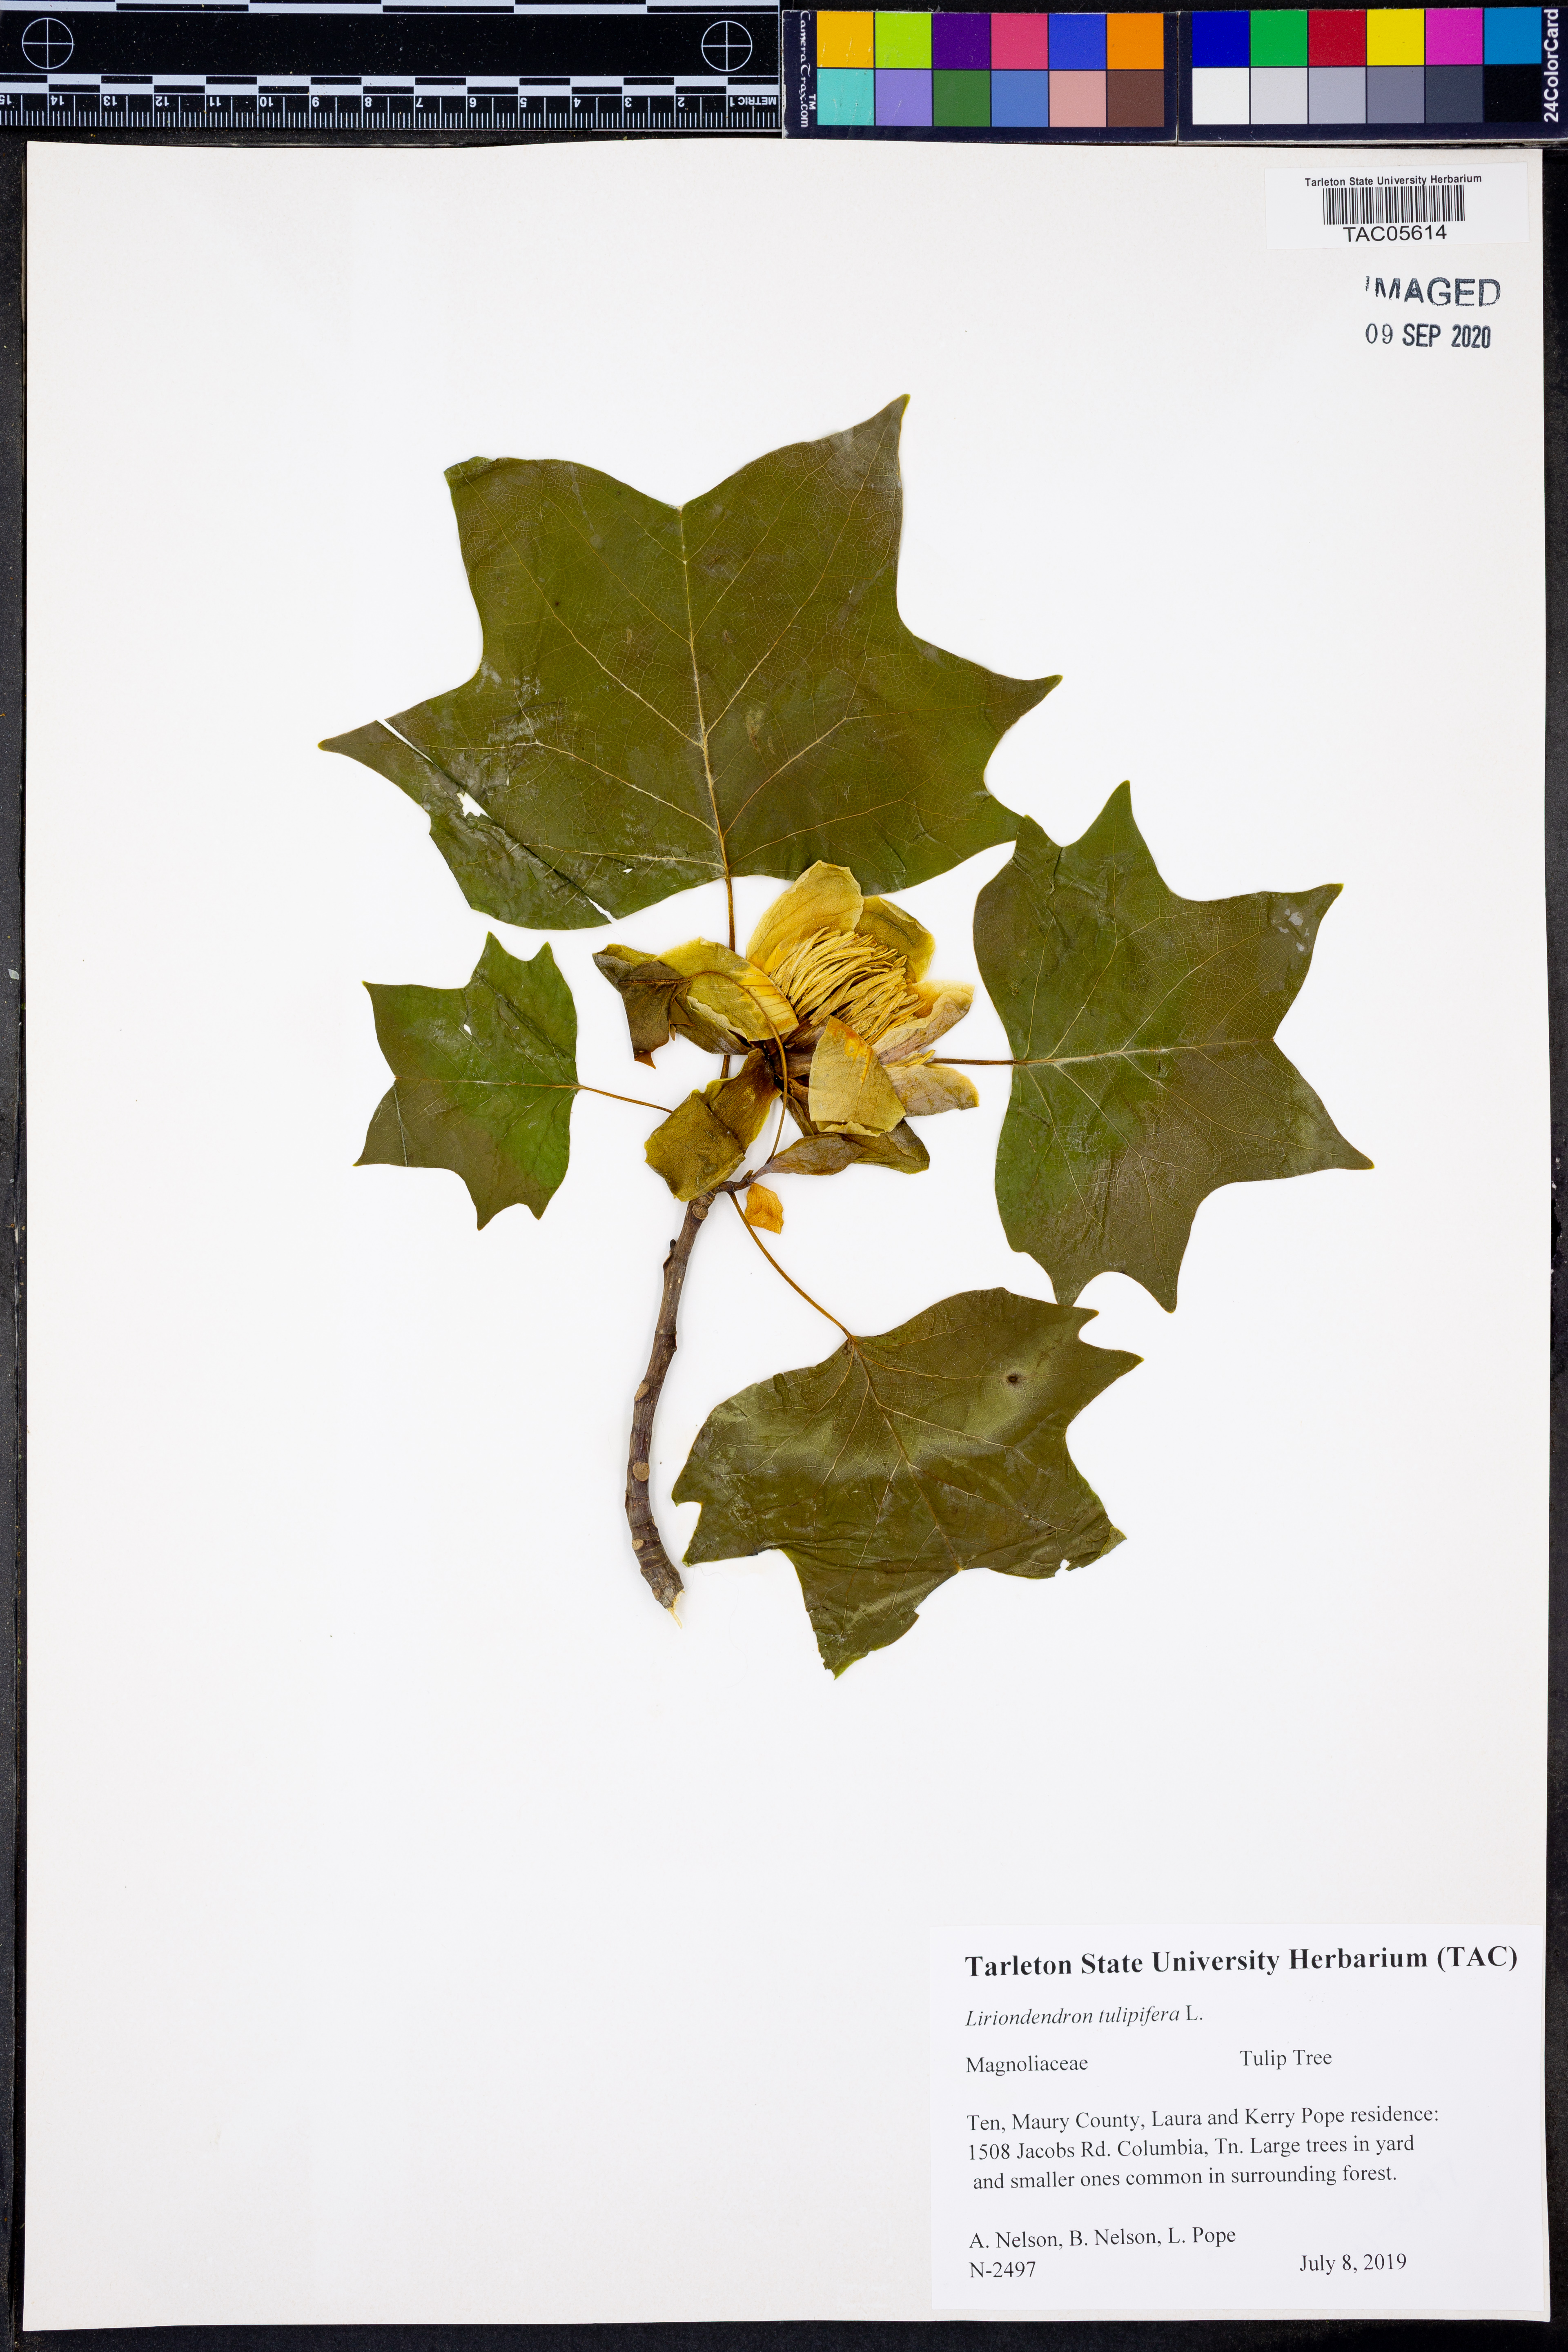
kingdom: Plantae
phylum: Tracheophyta
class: Magnoliopsida
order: Magnoliales
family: Magnoliaceae
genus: Liriodendron
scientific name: Liriodendron tulipifera
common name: Tulip tree
